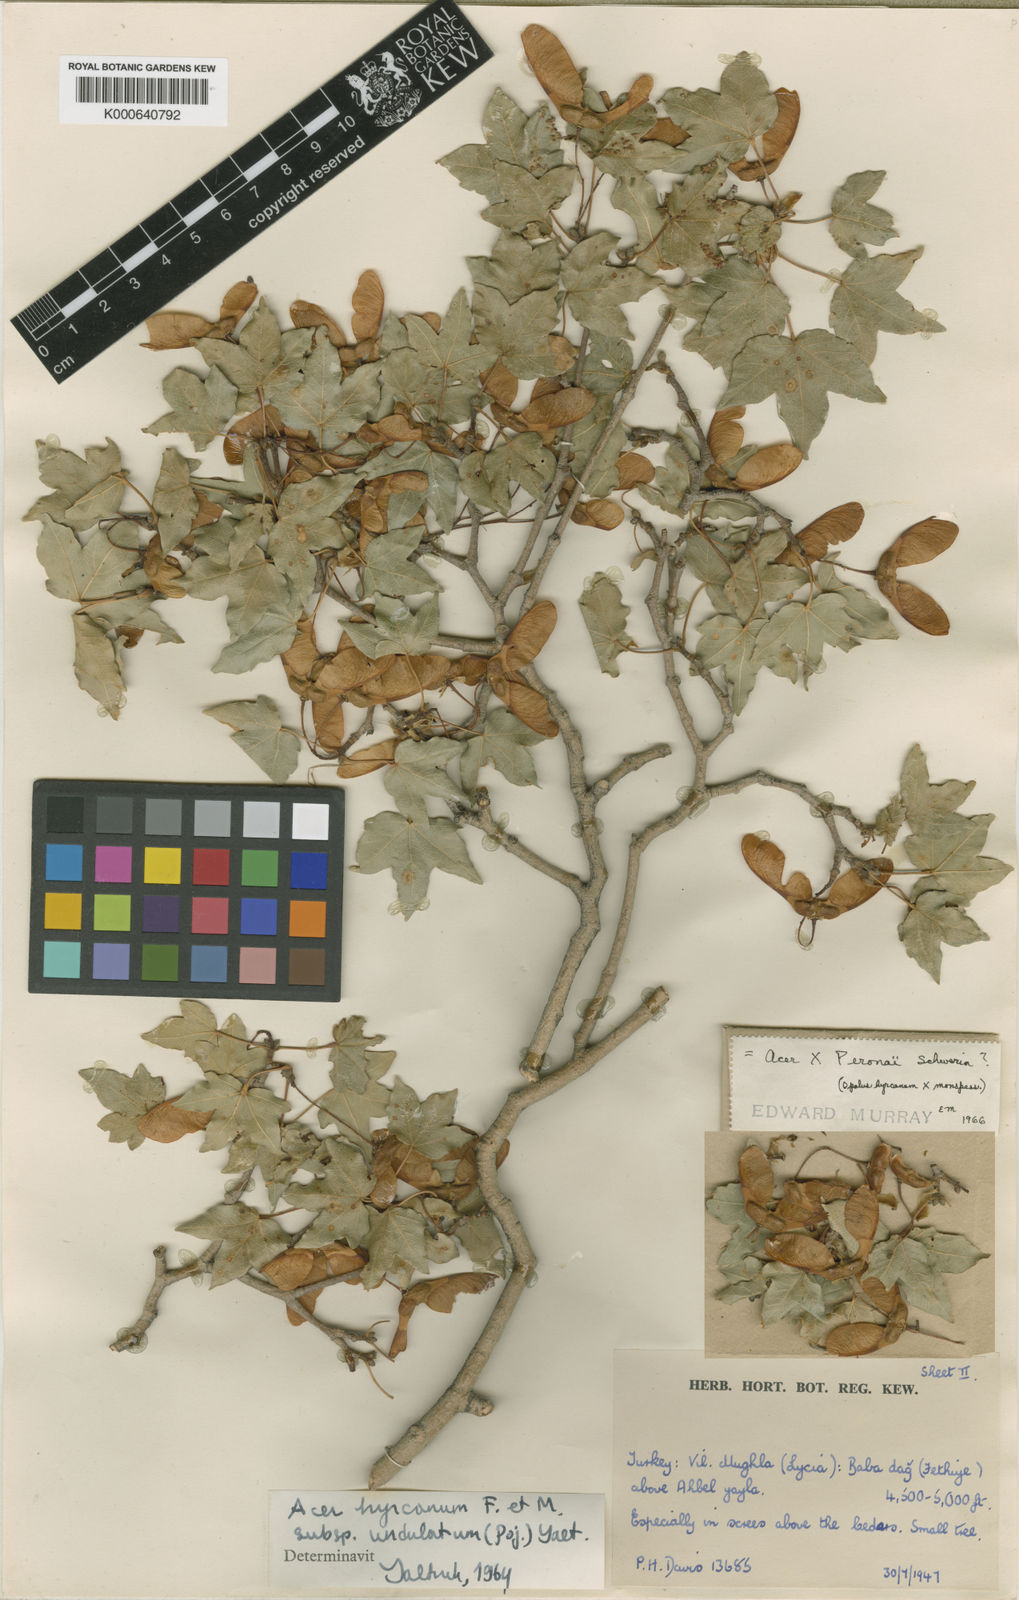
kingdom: Plantae
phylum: Tracheophyta
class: Magnoliopsida
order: Sapindales
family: Sapindaceae
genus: Acer
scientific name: Acer hyrcanum
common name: Balkan maple
